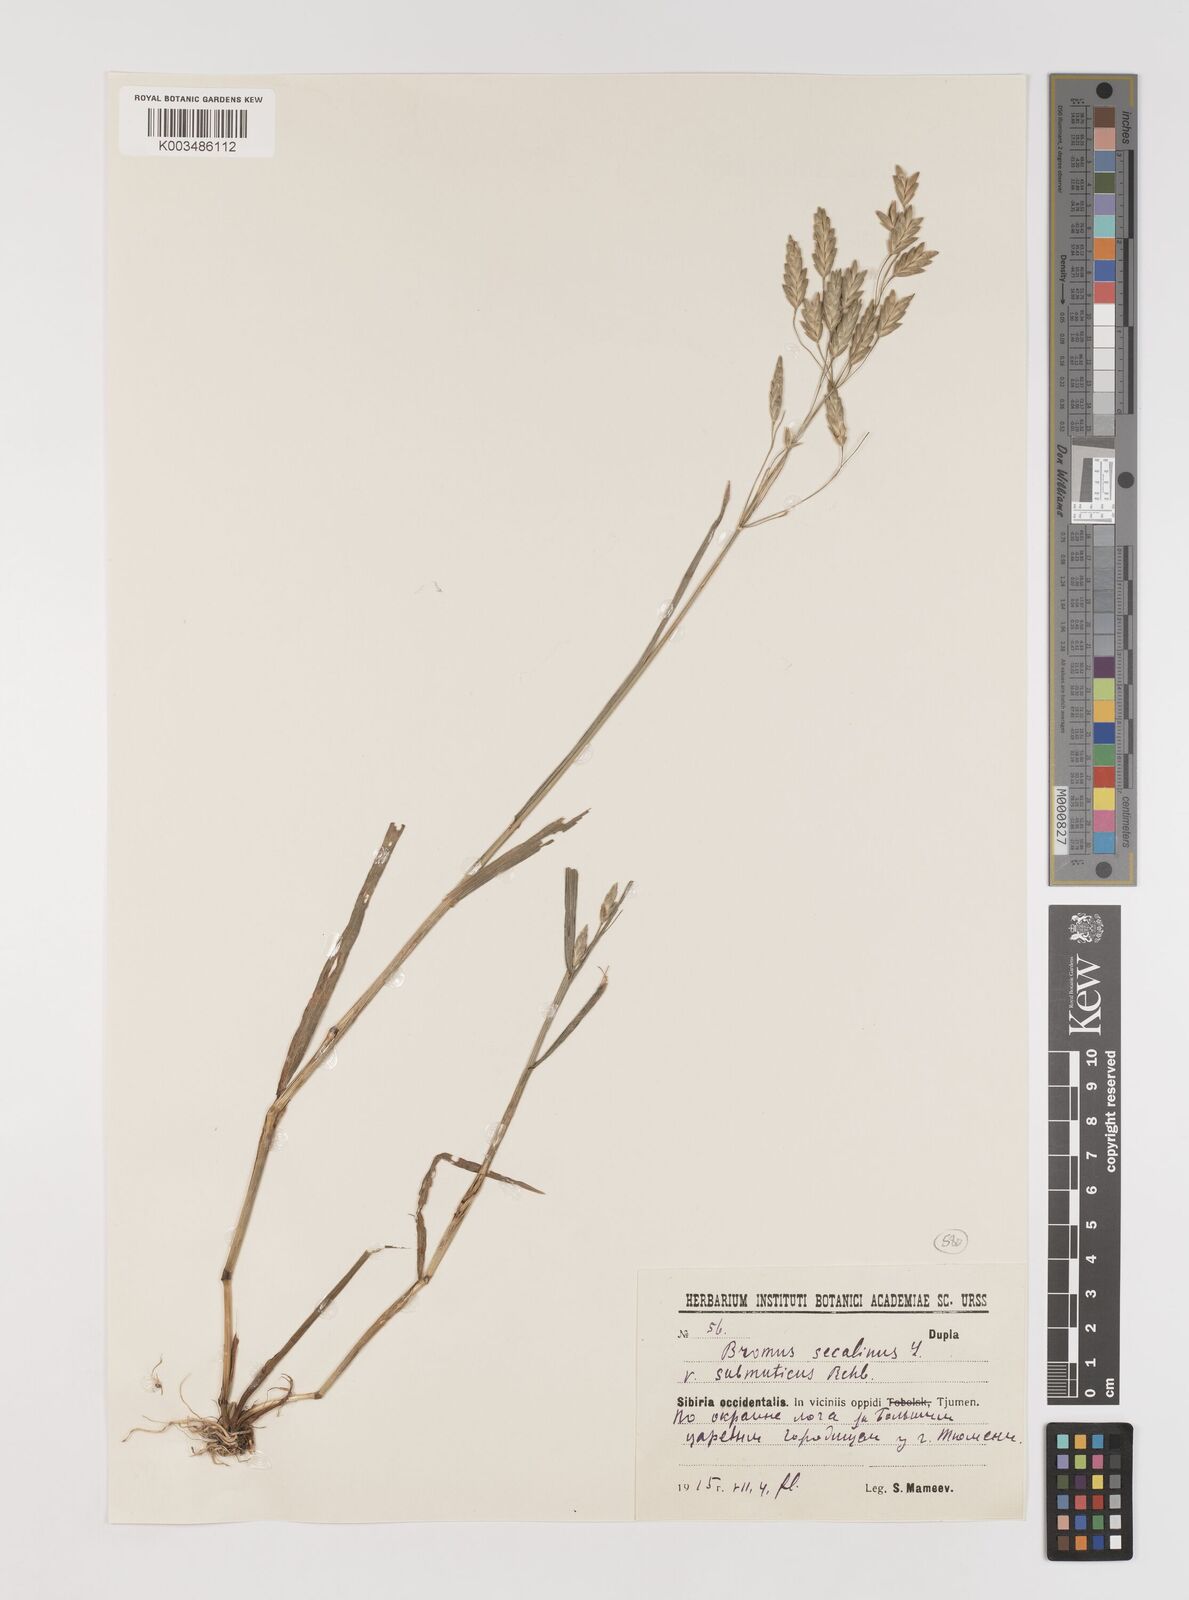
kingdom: Plantae
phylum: Tracheophyta
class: Liliopsida
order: Poales
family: Poaceae
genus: Bromus
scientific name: Bromus secalinus
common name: Rye brome
